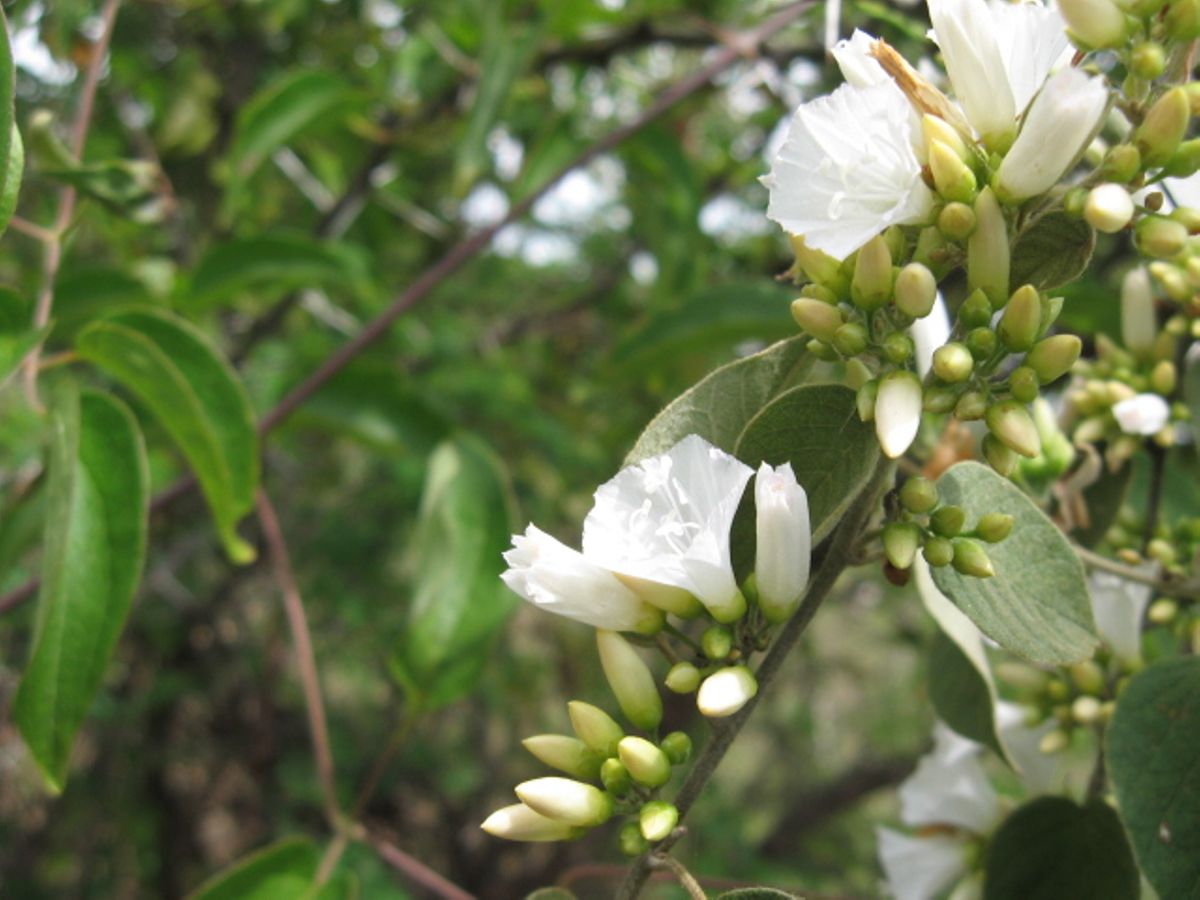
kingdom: Plantae
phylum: Tracheophyta
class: Magnoliopsida
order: Solanales
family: Convolvulaceae
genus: Jacquemontia
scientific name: Jacquemontia nodiflora
